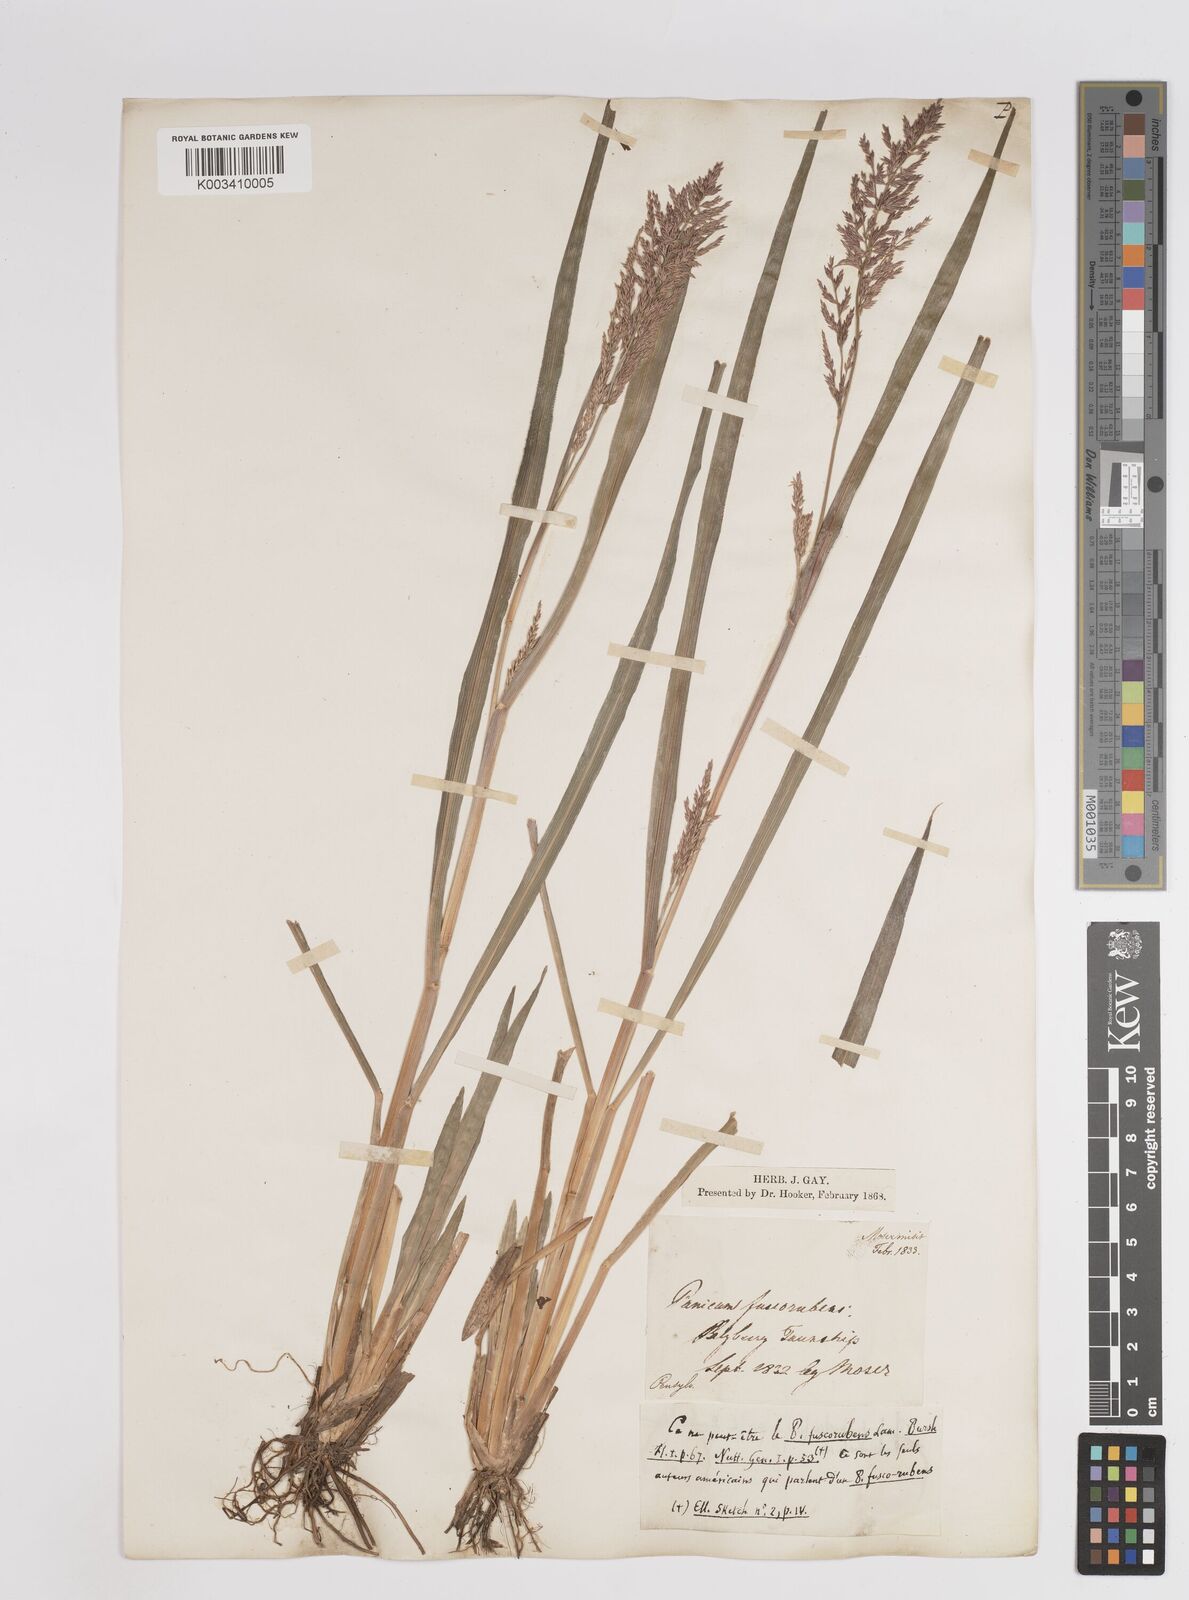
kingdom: Plantae
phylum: Tracheophyta
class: Liliopsida
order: Poales
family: Poaceae
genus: Coleataenia
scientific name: Coleataenia pulchra
